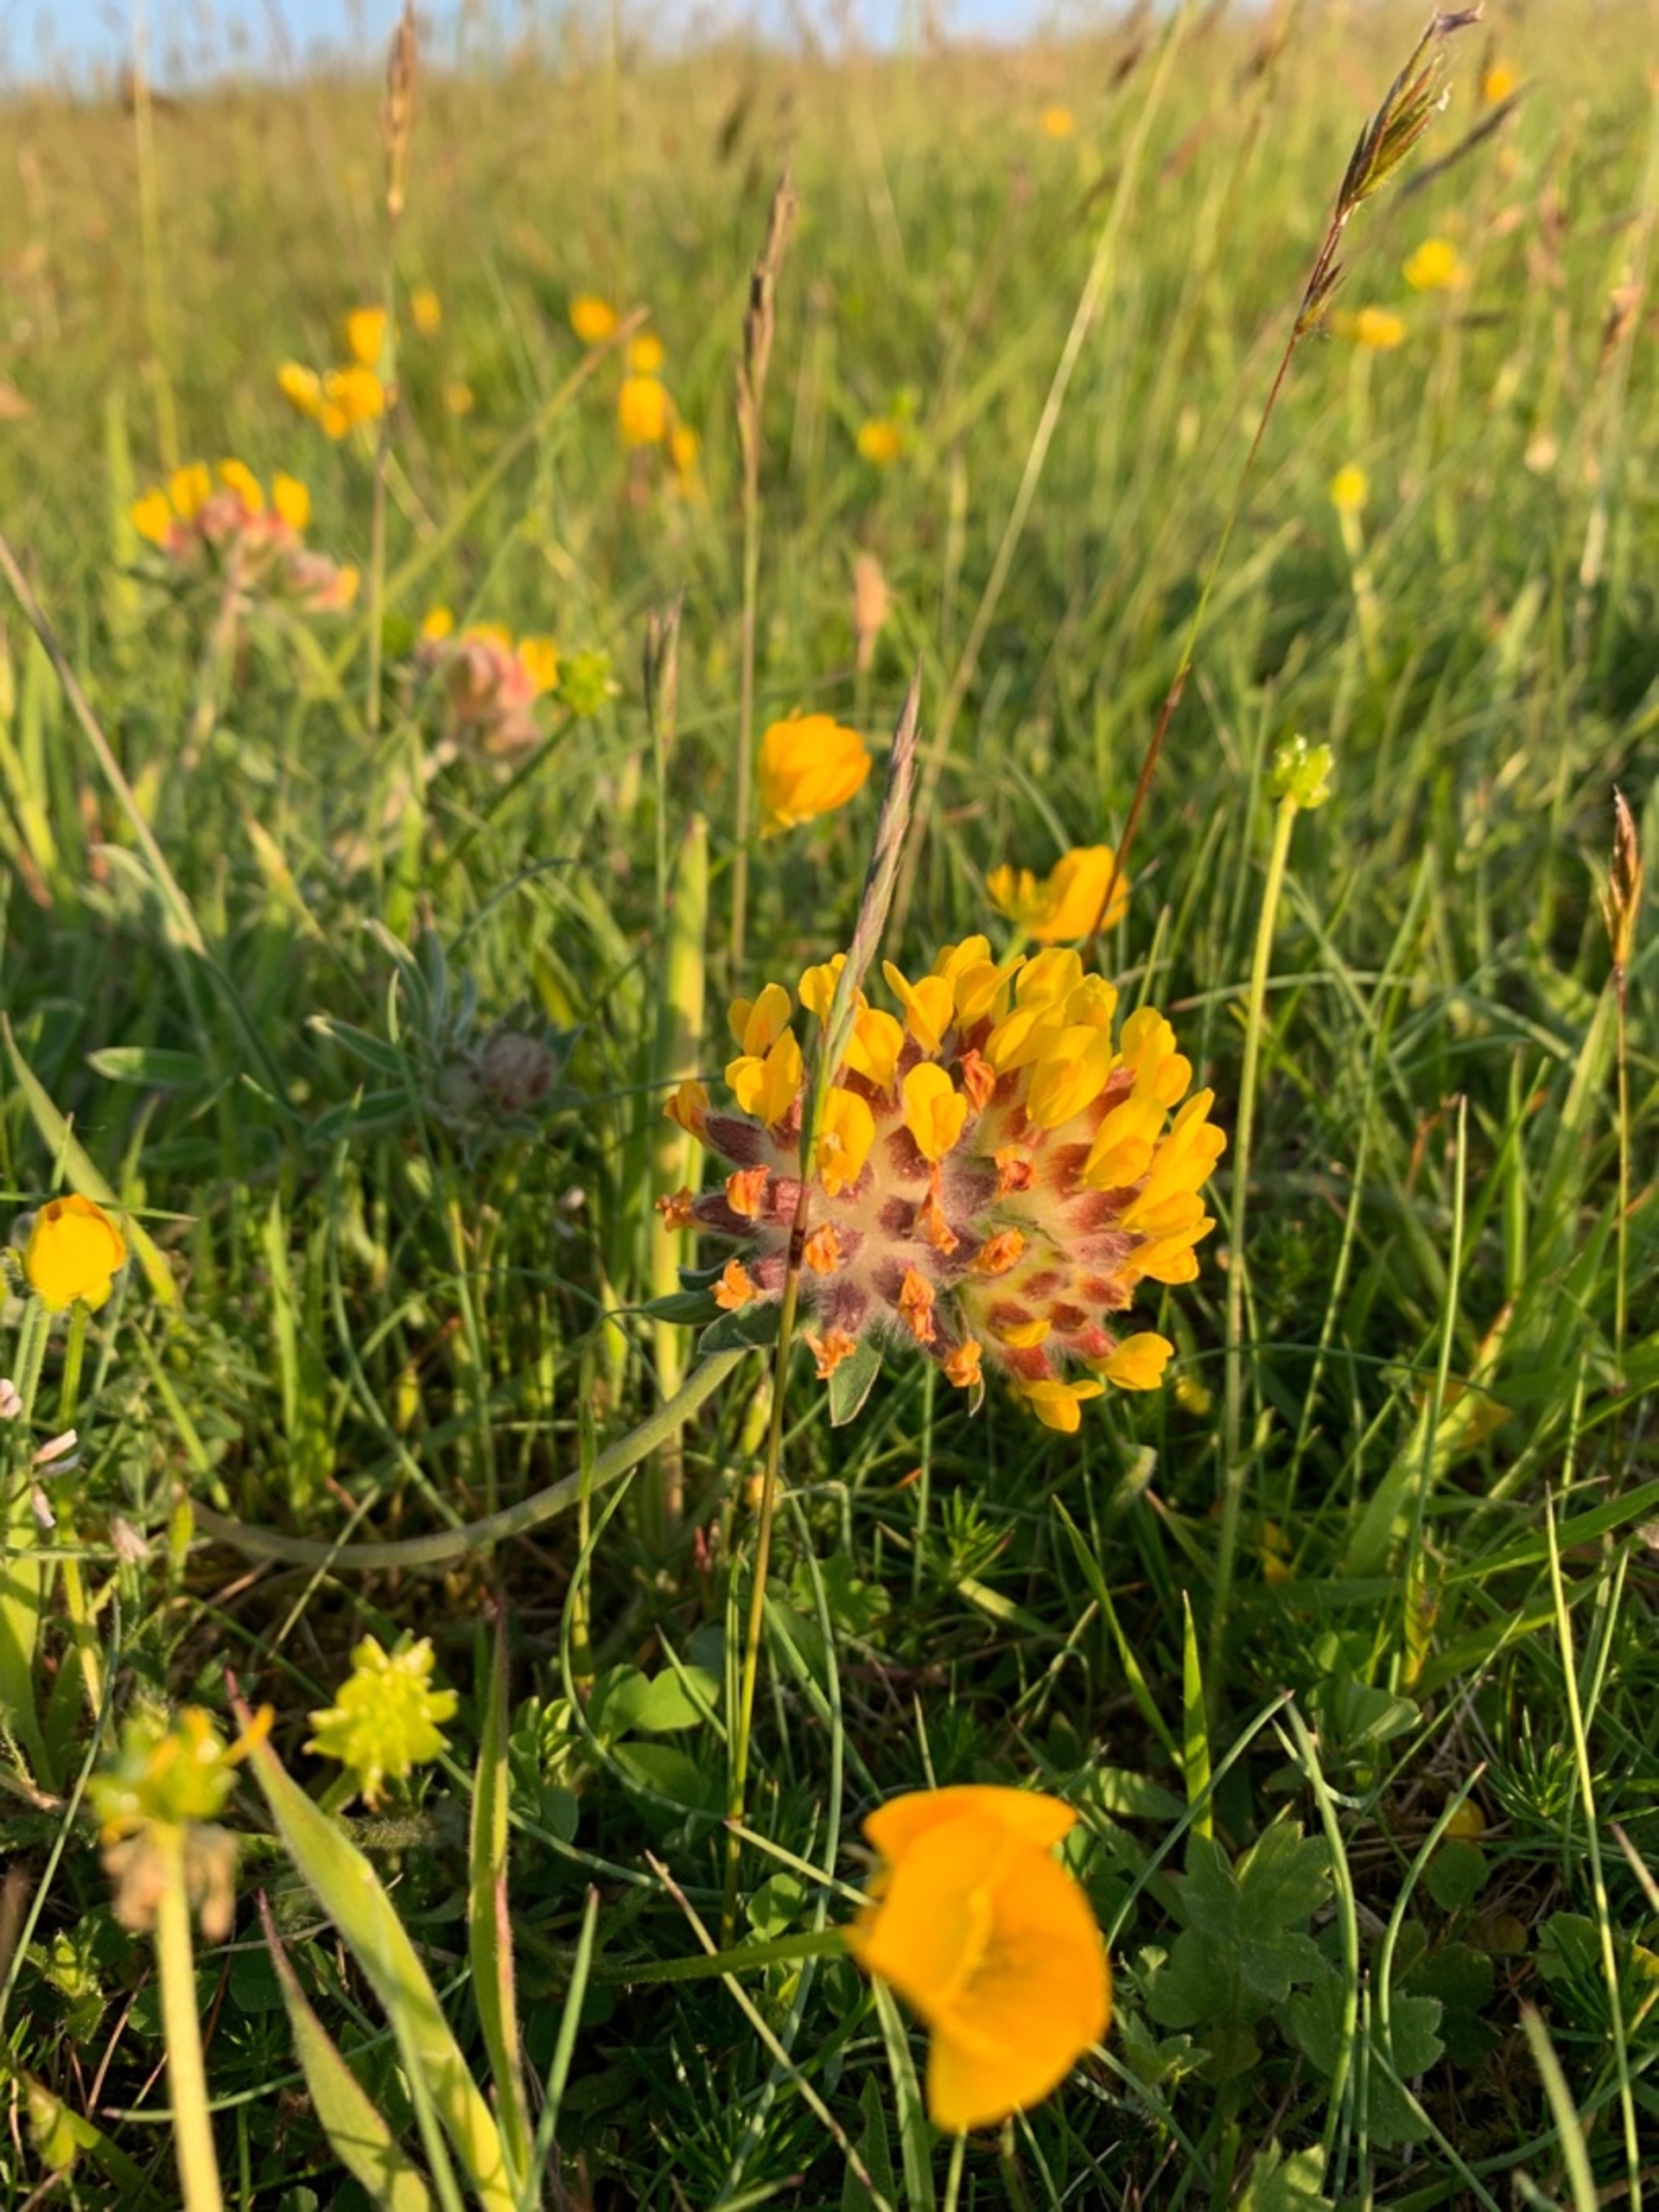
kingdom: Plantae
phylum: Tracheophyta
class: Magnoliopsida
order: Fabales
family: Fabaceae
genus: Anthyllis
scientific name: Anthyllis vulneraria
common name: Rundbælg
